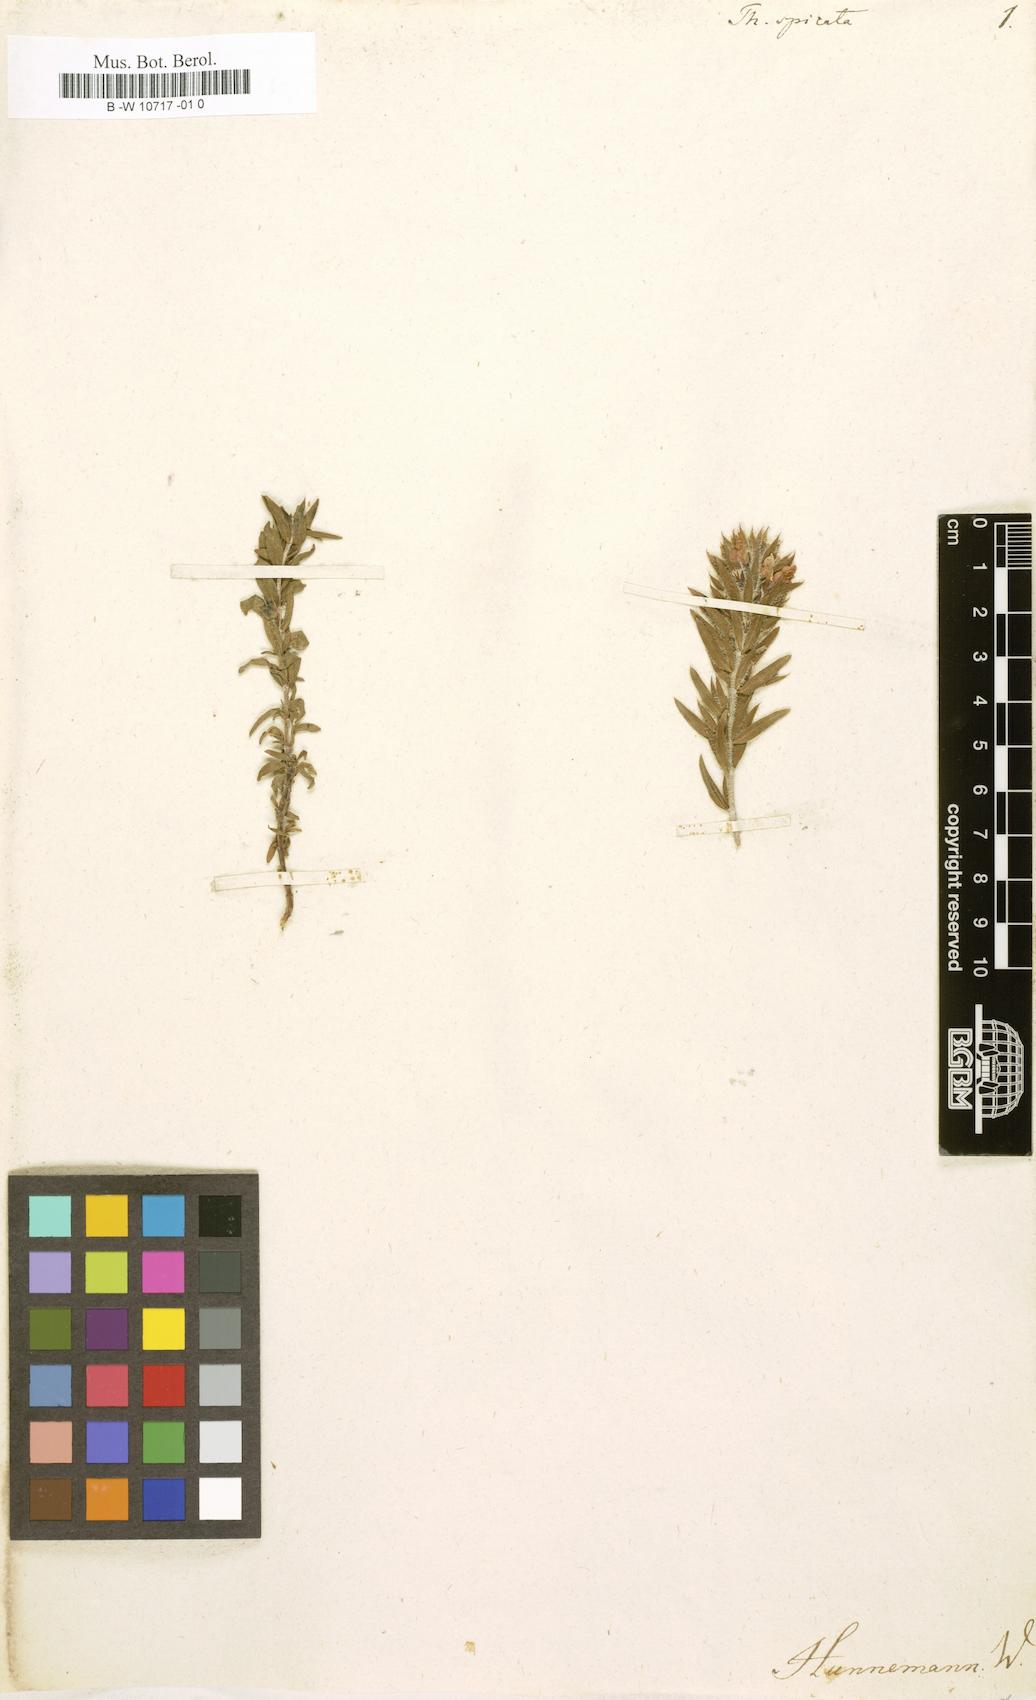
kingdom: Plantae
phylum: Tracheophyta
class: Magnoliopsida
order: Lamiales
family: Lamiaceae
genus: Thymbra
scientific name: Thymbra spicata
